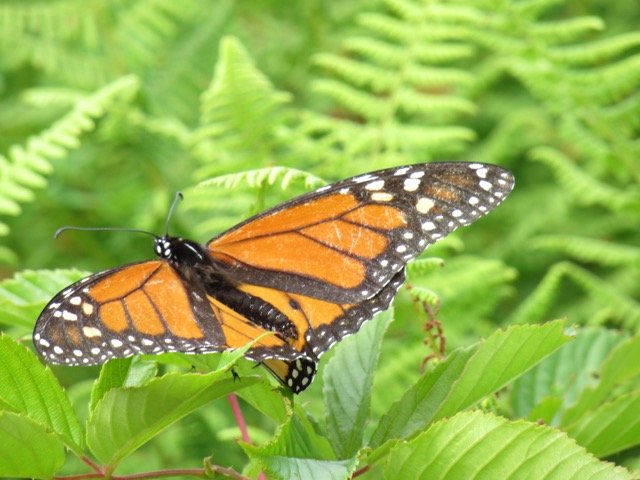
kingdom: Animalia
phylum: Arthropoda
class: Insecta
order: Lepidoptera
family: Nymphalidae
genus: Danaus
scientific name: Danaus plexippus
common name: Monarch
